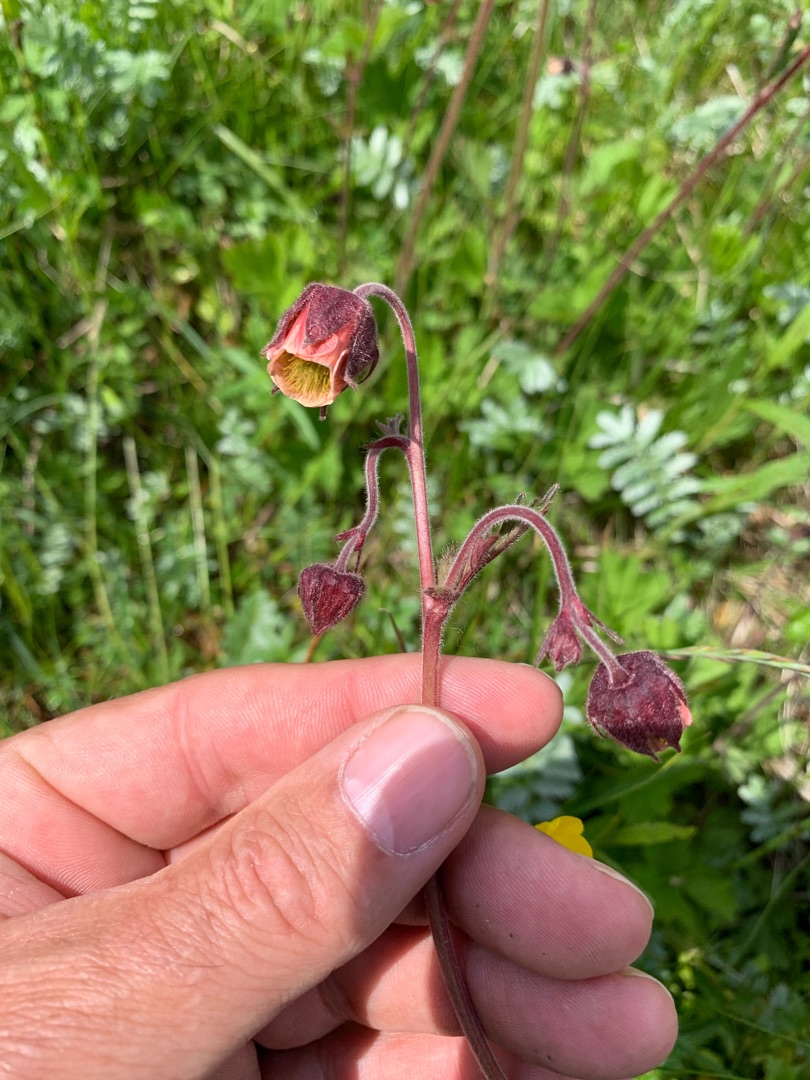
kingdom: Plantae
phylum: Tracheophyta
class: Magnoliopsida
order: Rosales
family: Rosaceae
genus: Geum
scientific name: Geum rivale
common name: Eng-nellikerod
